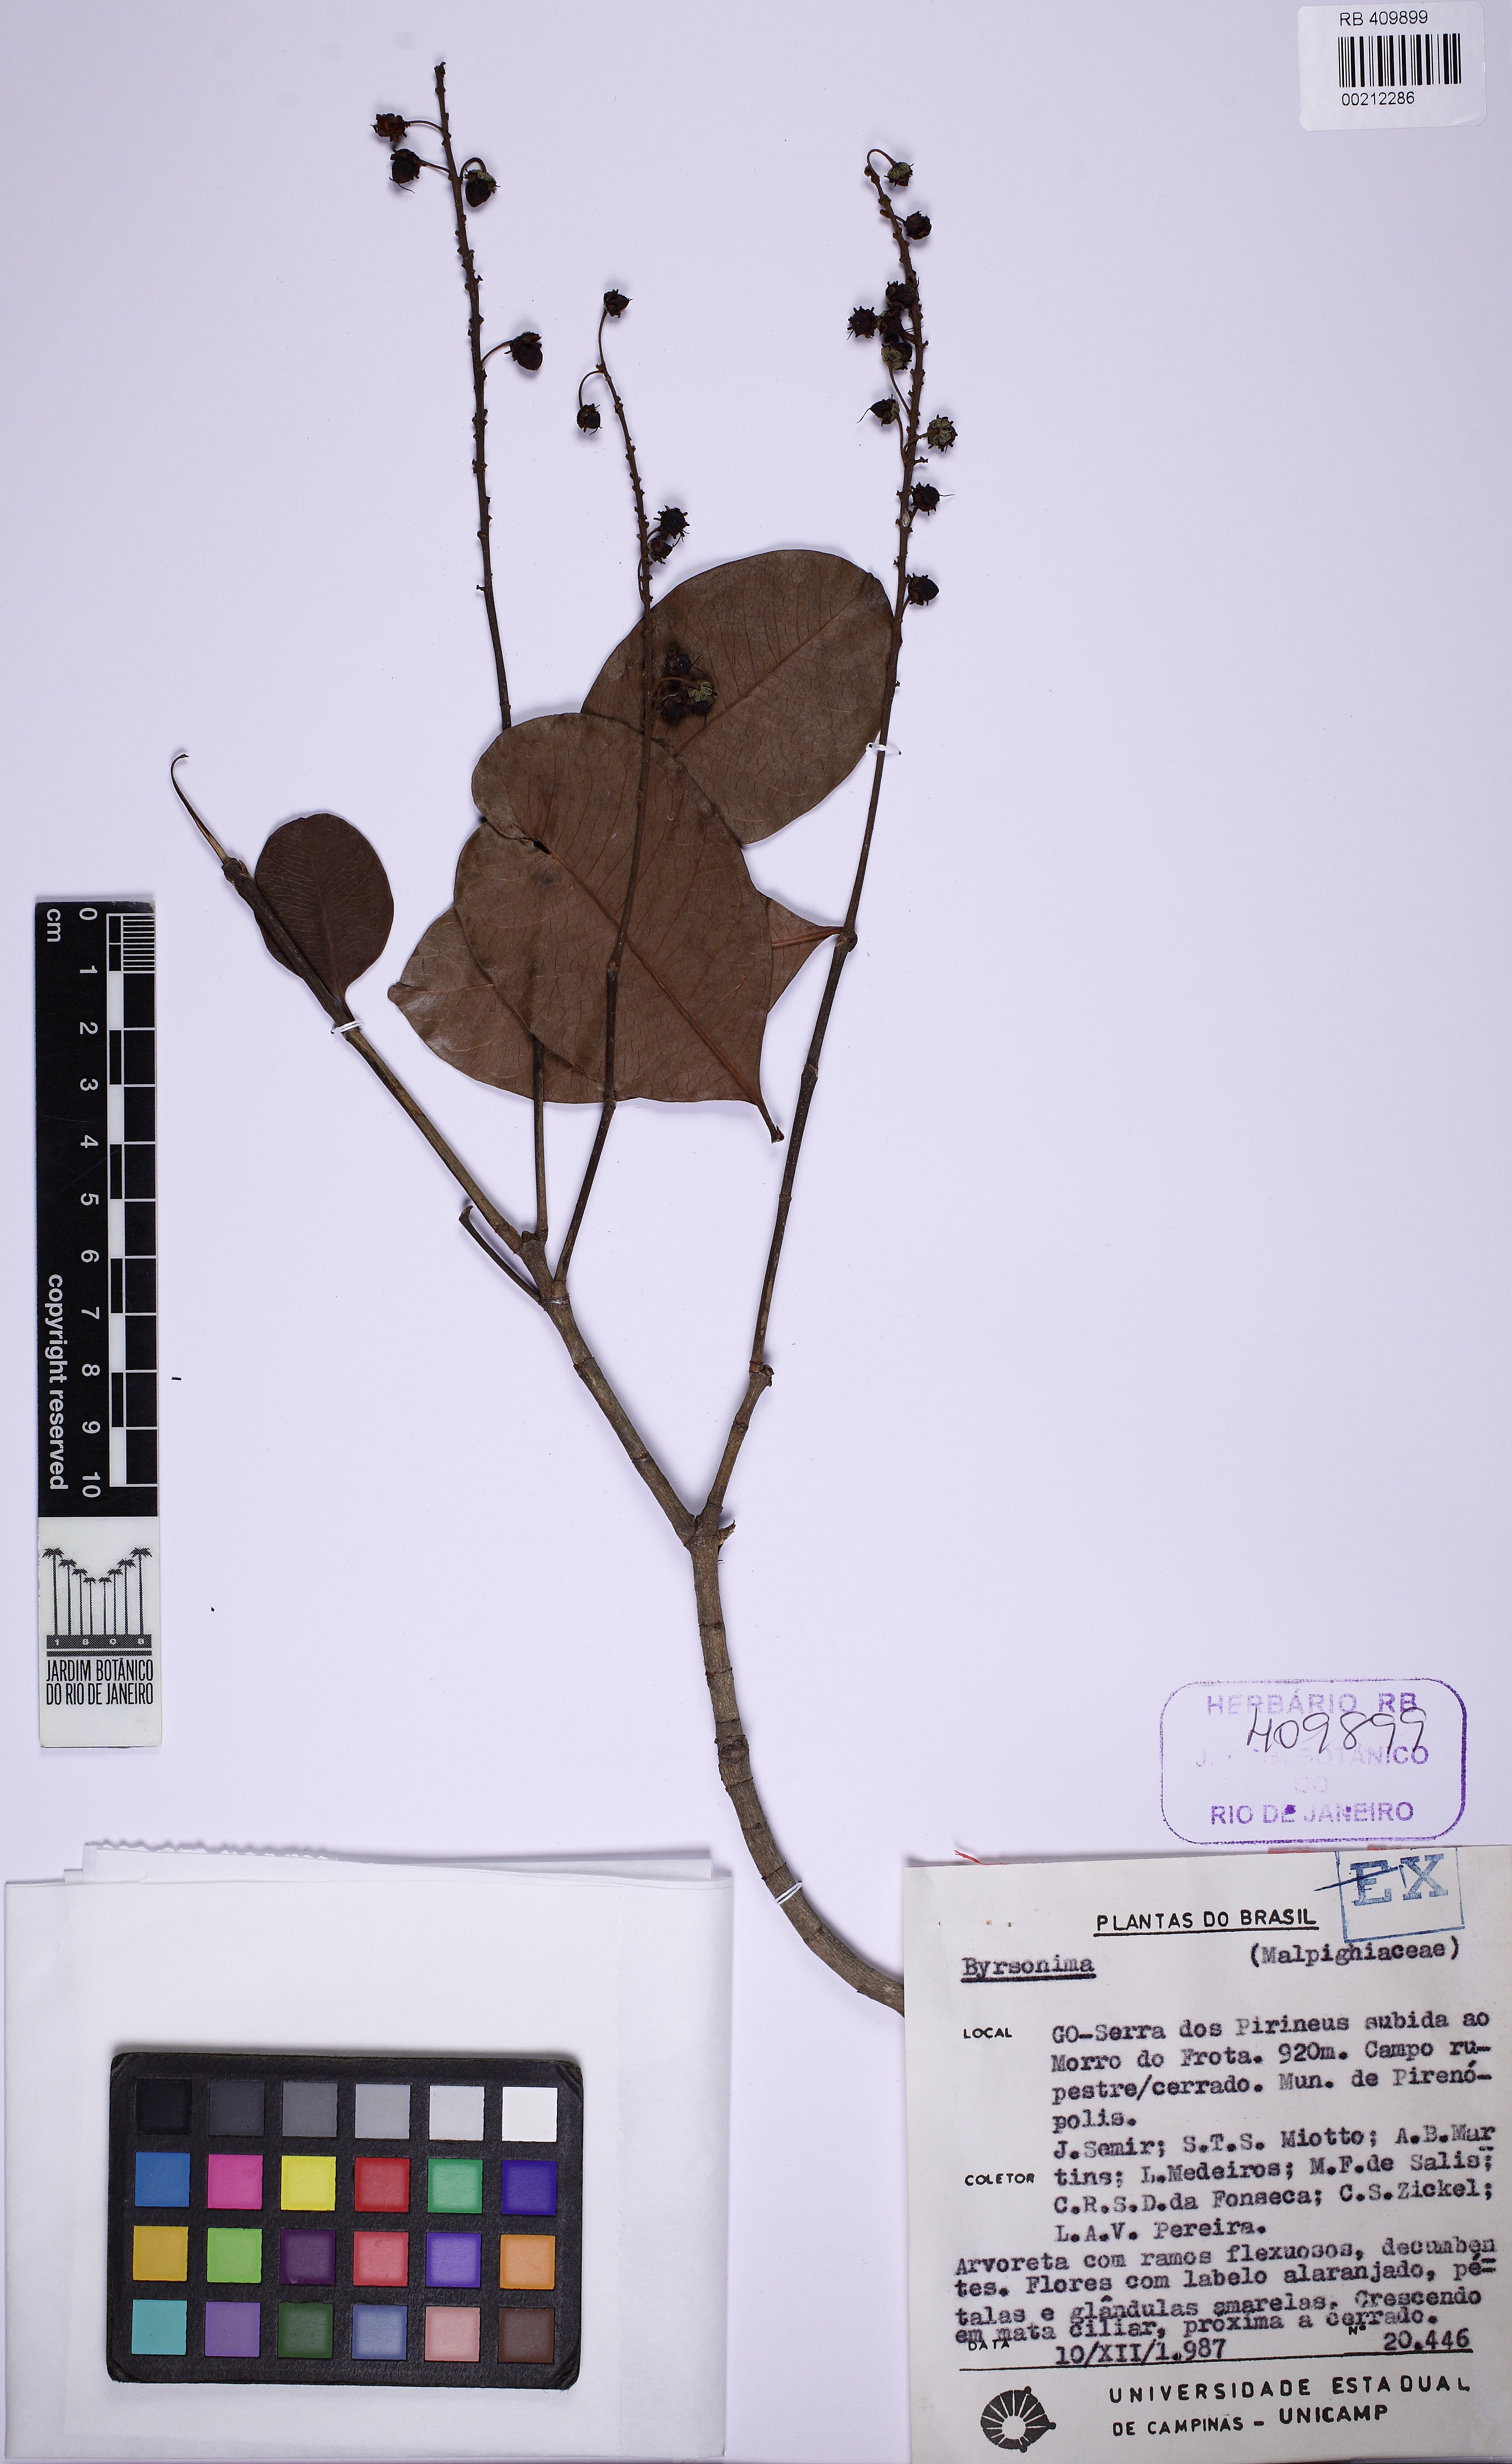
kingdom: Plantae
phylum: Tracheophyta
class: Magnoliopsida
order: Malpighiales
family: Malpighiaceae
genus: Byrsonima
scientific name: Byrsonima
